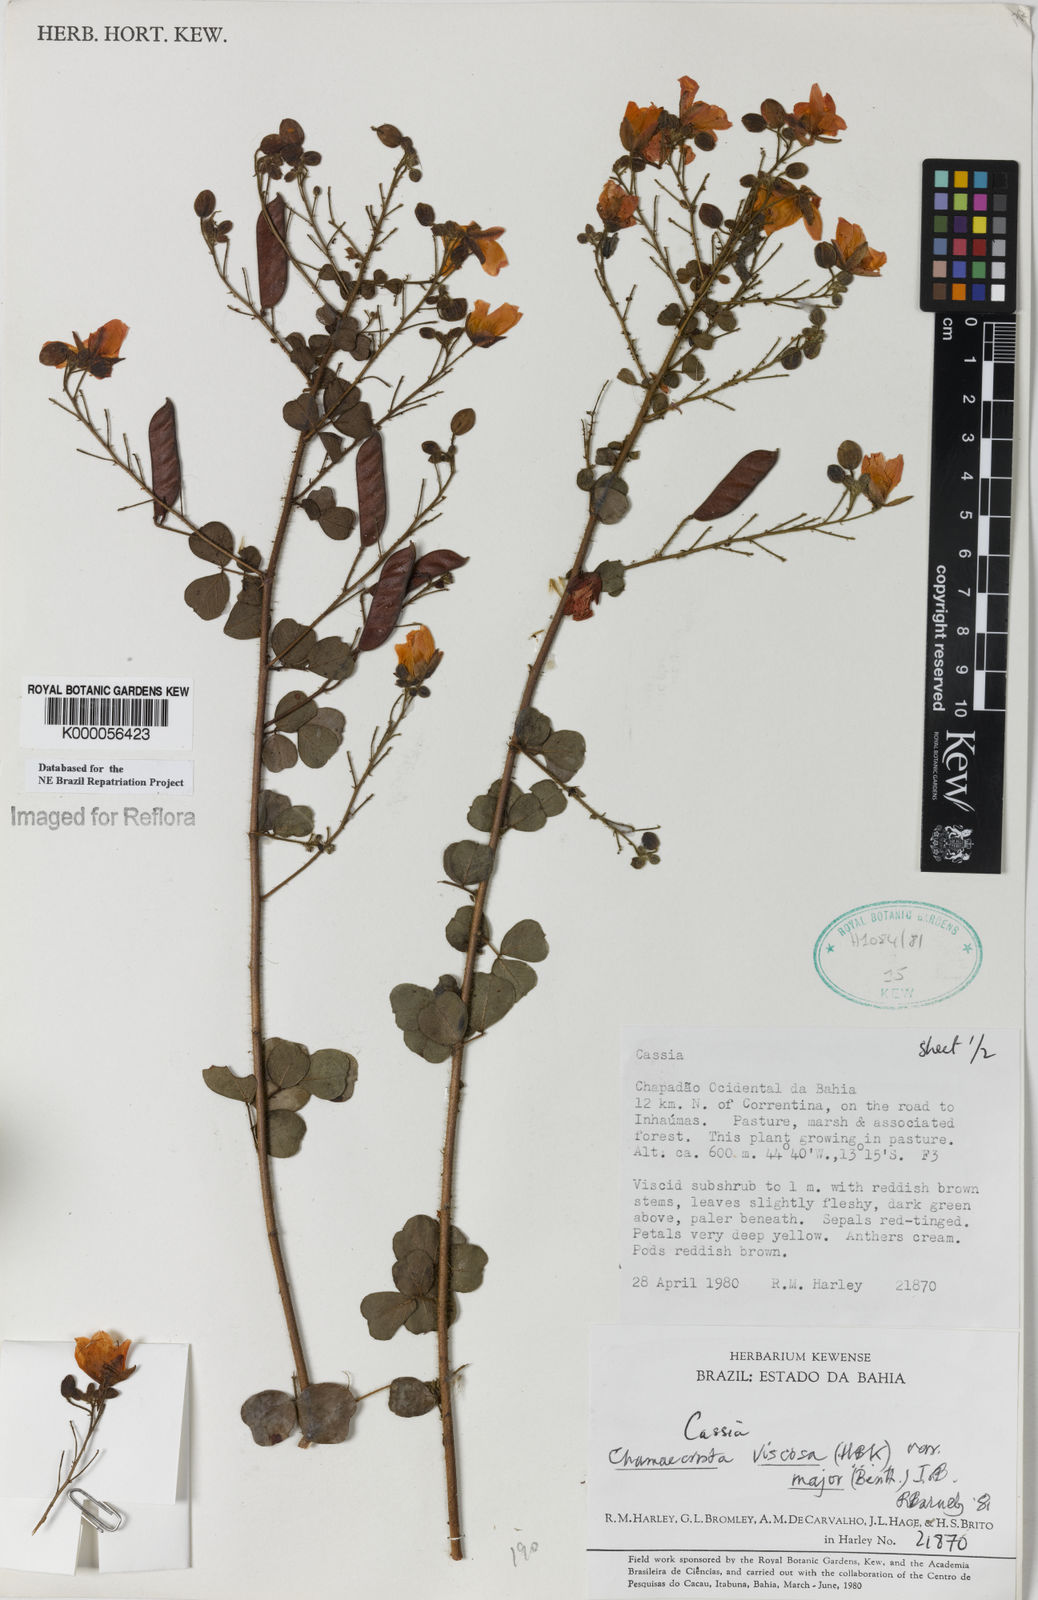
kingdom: Plantae
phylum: Tracheophyta
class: Magnoliopsida
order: Fabales
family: Fabaceae
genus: Chamaecrista
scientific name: Chamaecrista viscosa
